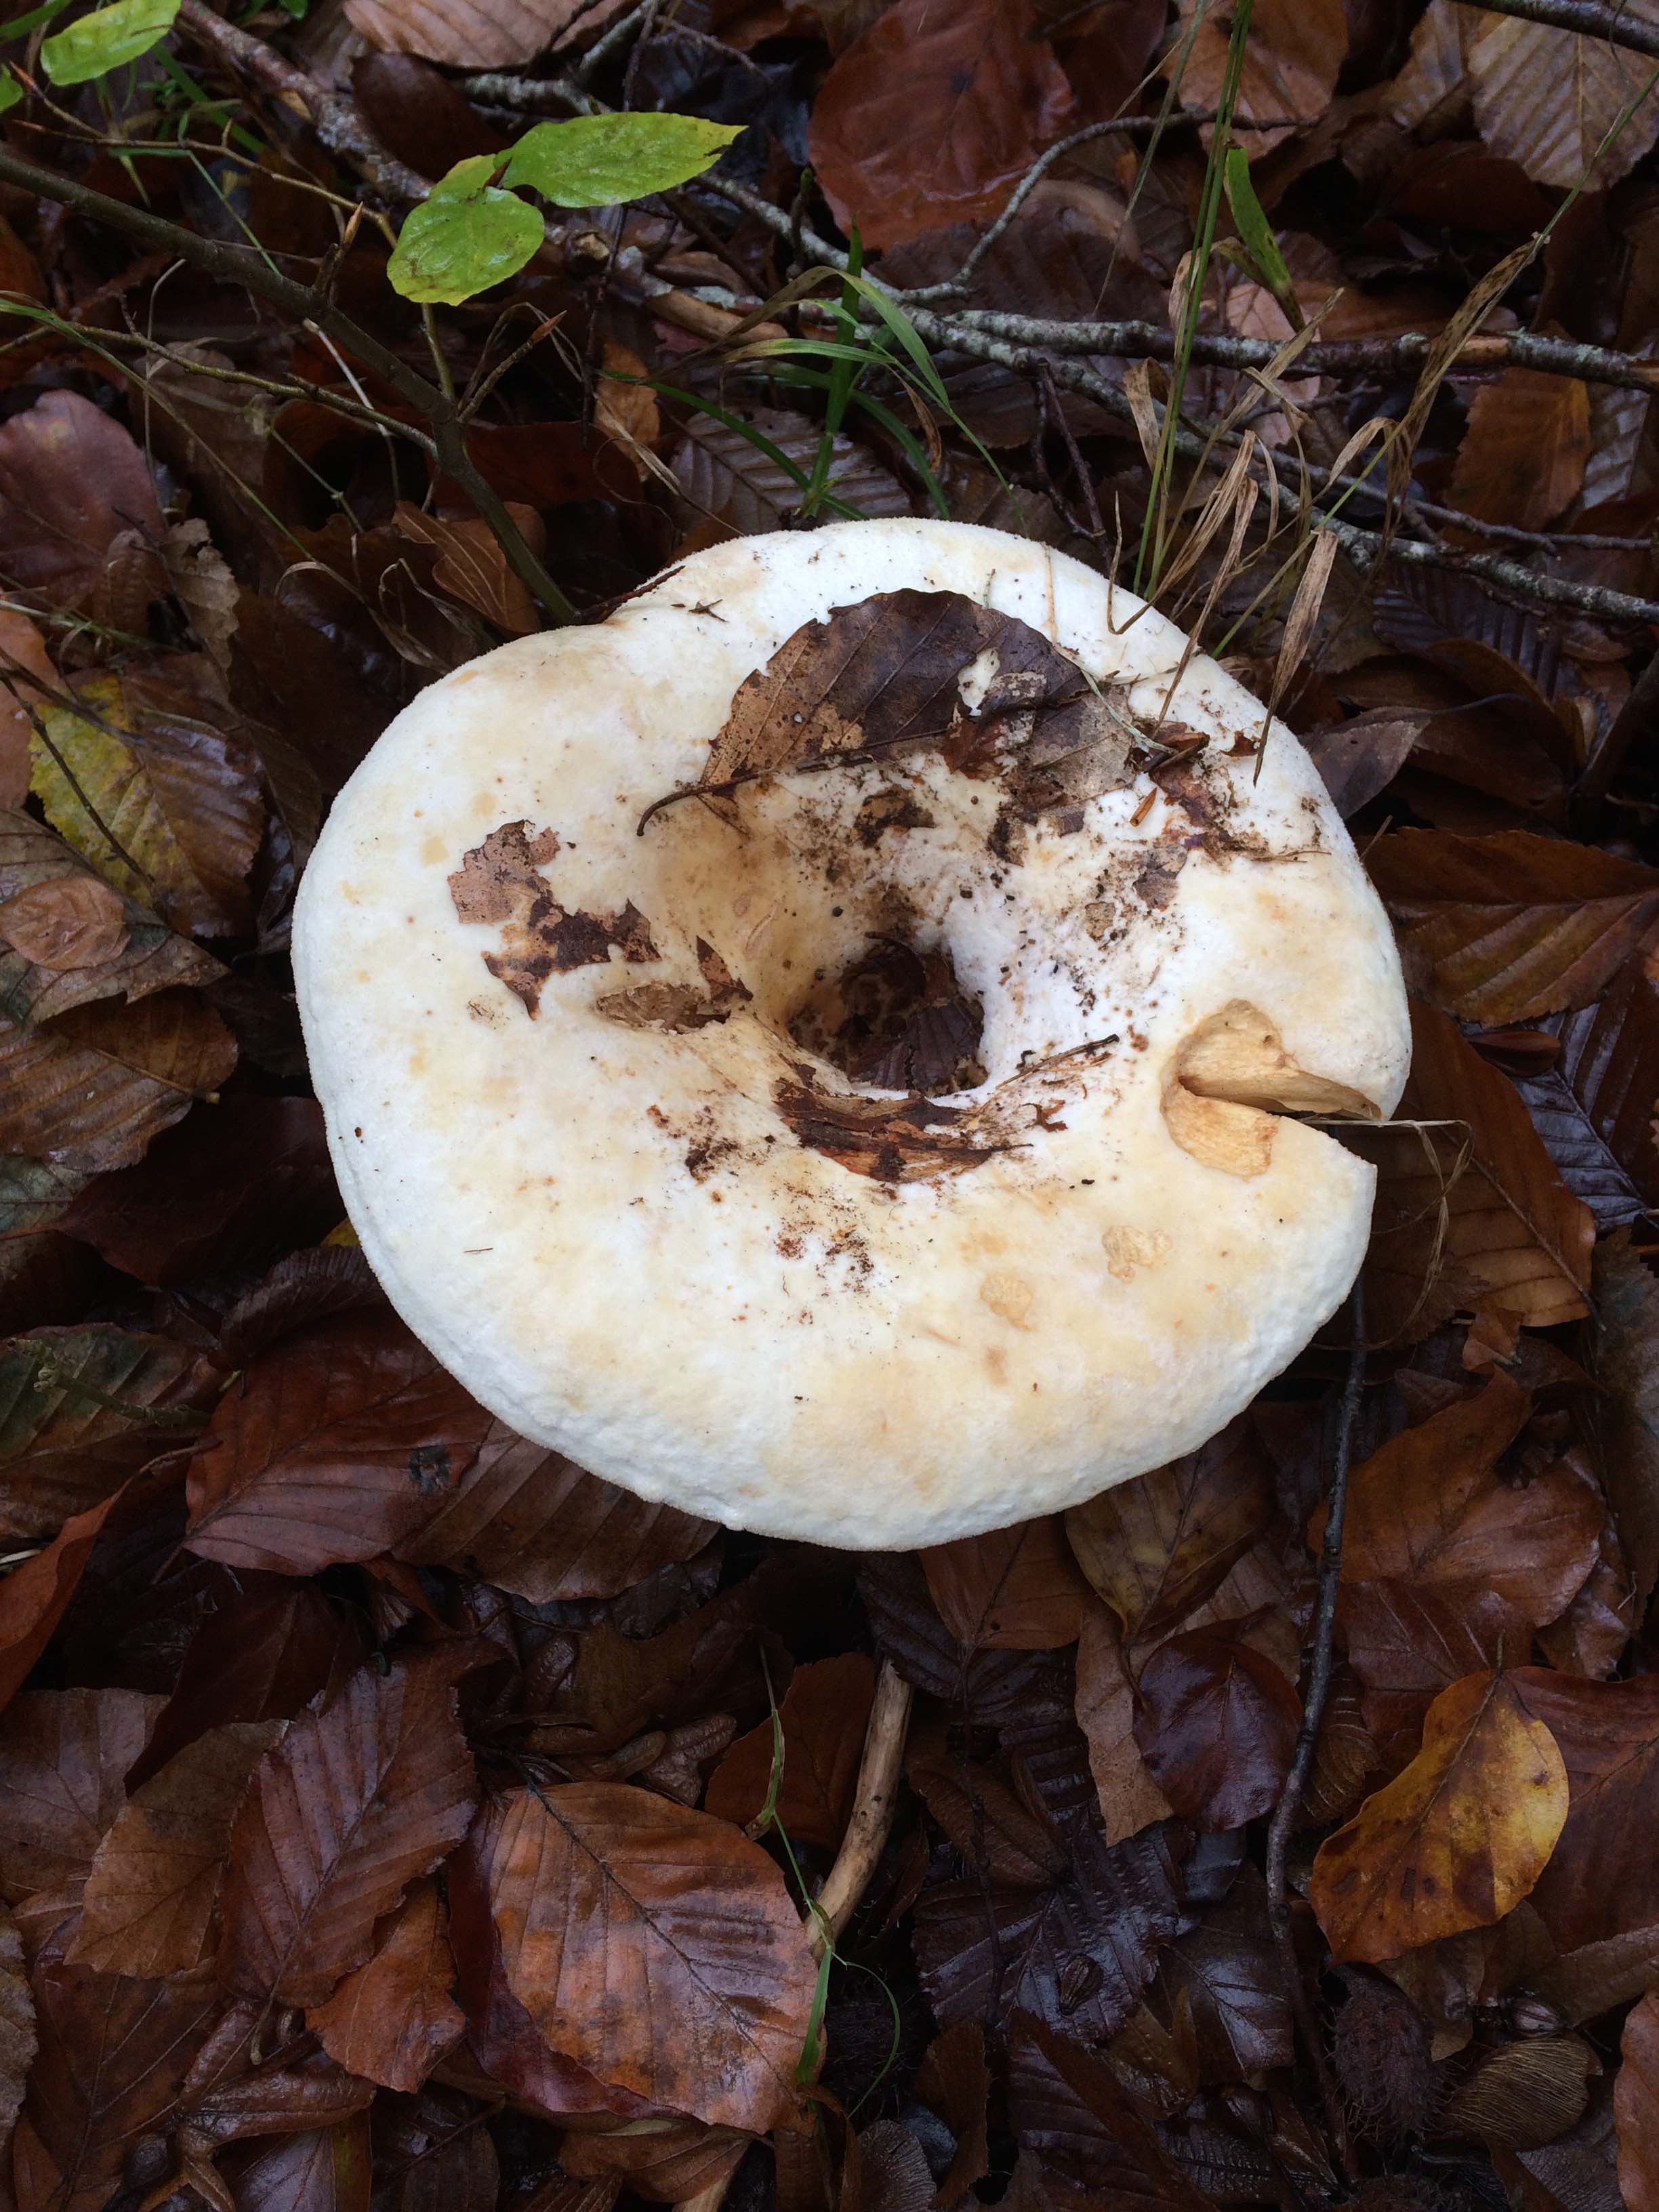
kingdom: Fungi
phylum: Basidiomycota
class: Agaricomycetes
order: Russulales
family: Russulaceae
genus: Lactifluus
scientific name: Lactifluus
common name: mælkehat
